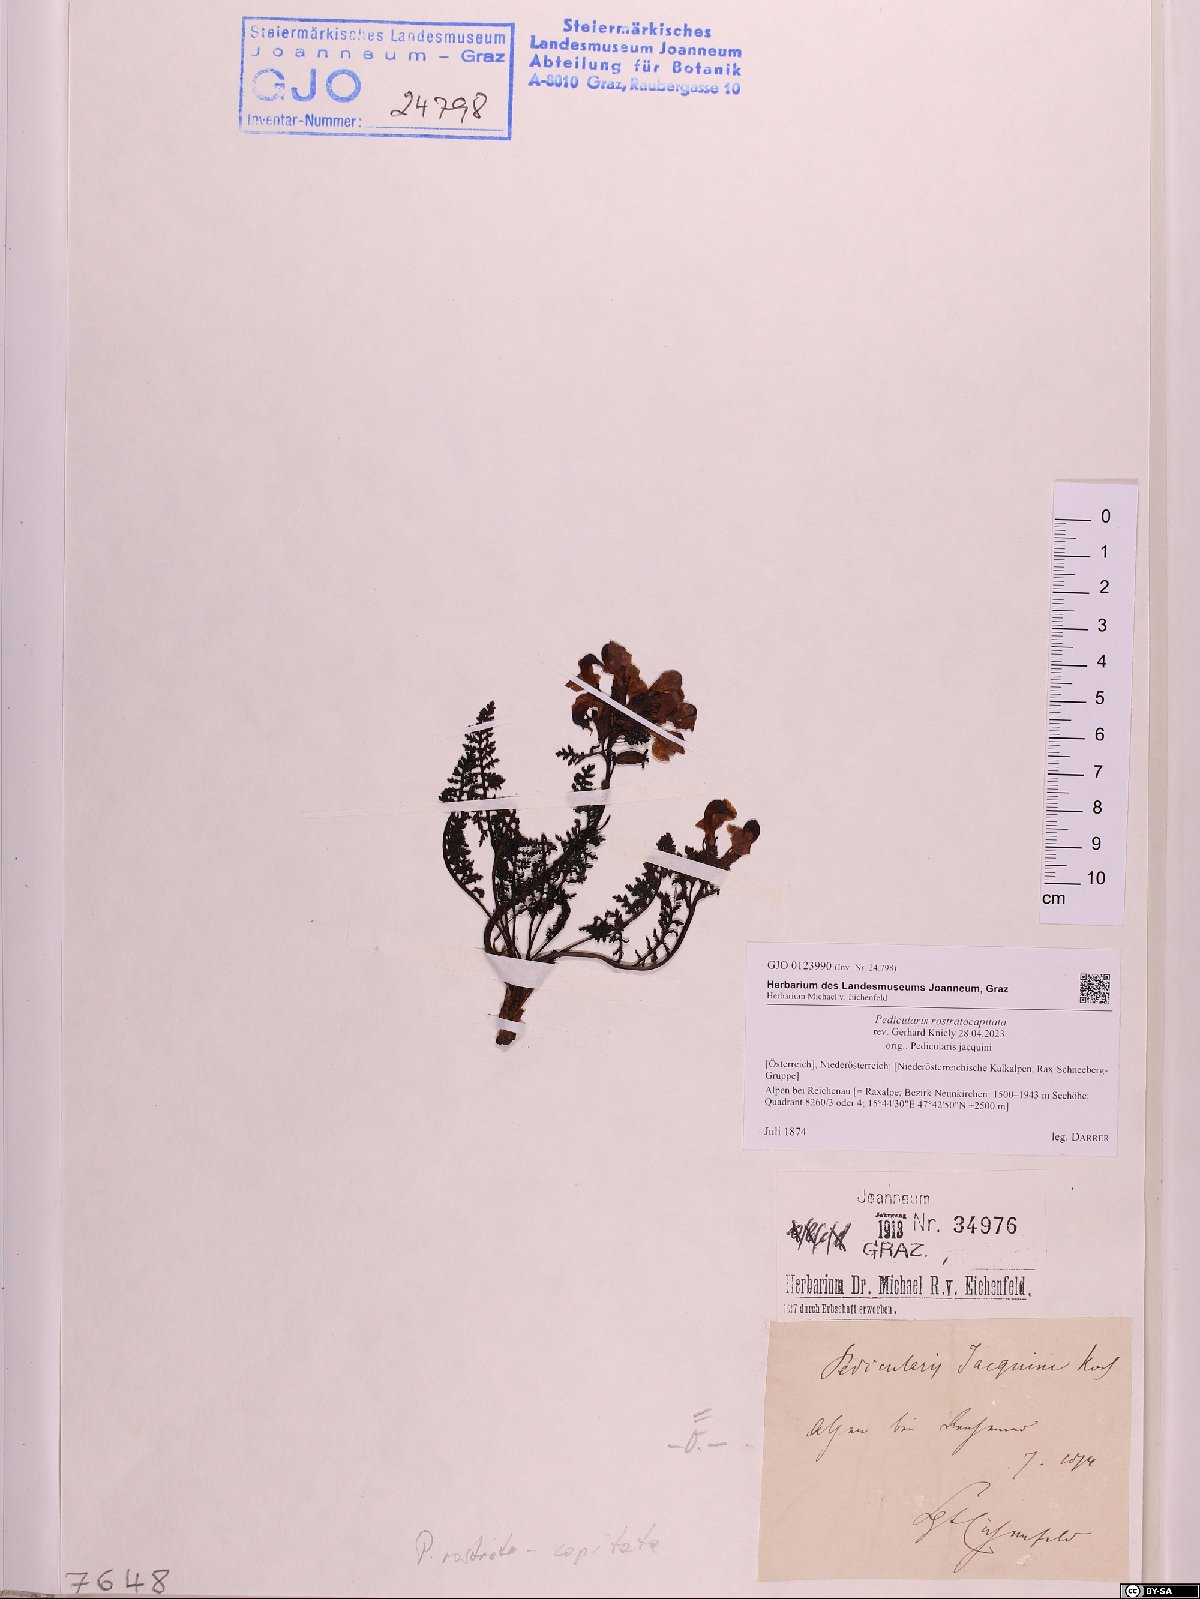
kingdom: Plantae
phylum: Tracheophyta
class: Magnoliopsida
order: Lamiales
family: Orobanchaceae
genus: Pedicularis
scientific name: Pedicularis rostratocapitata
